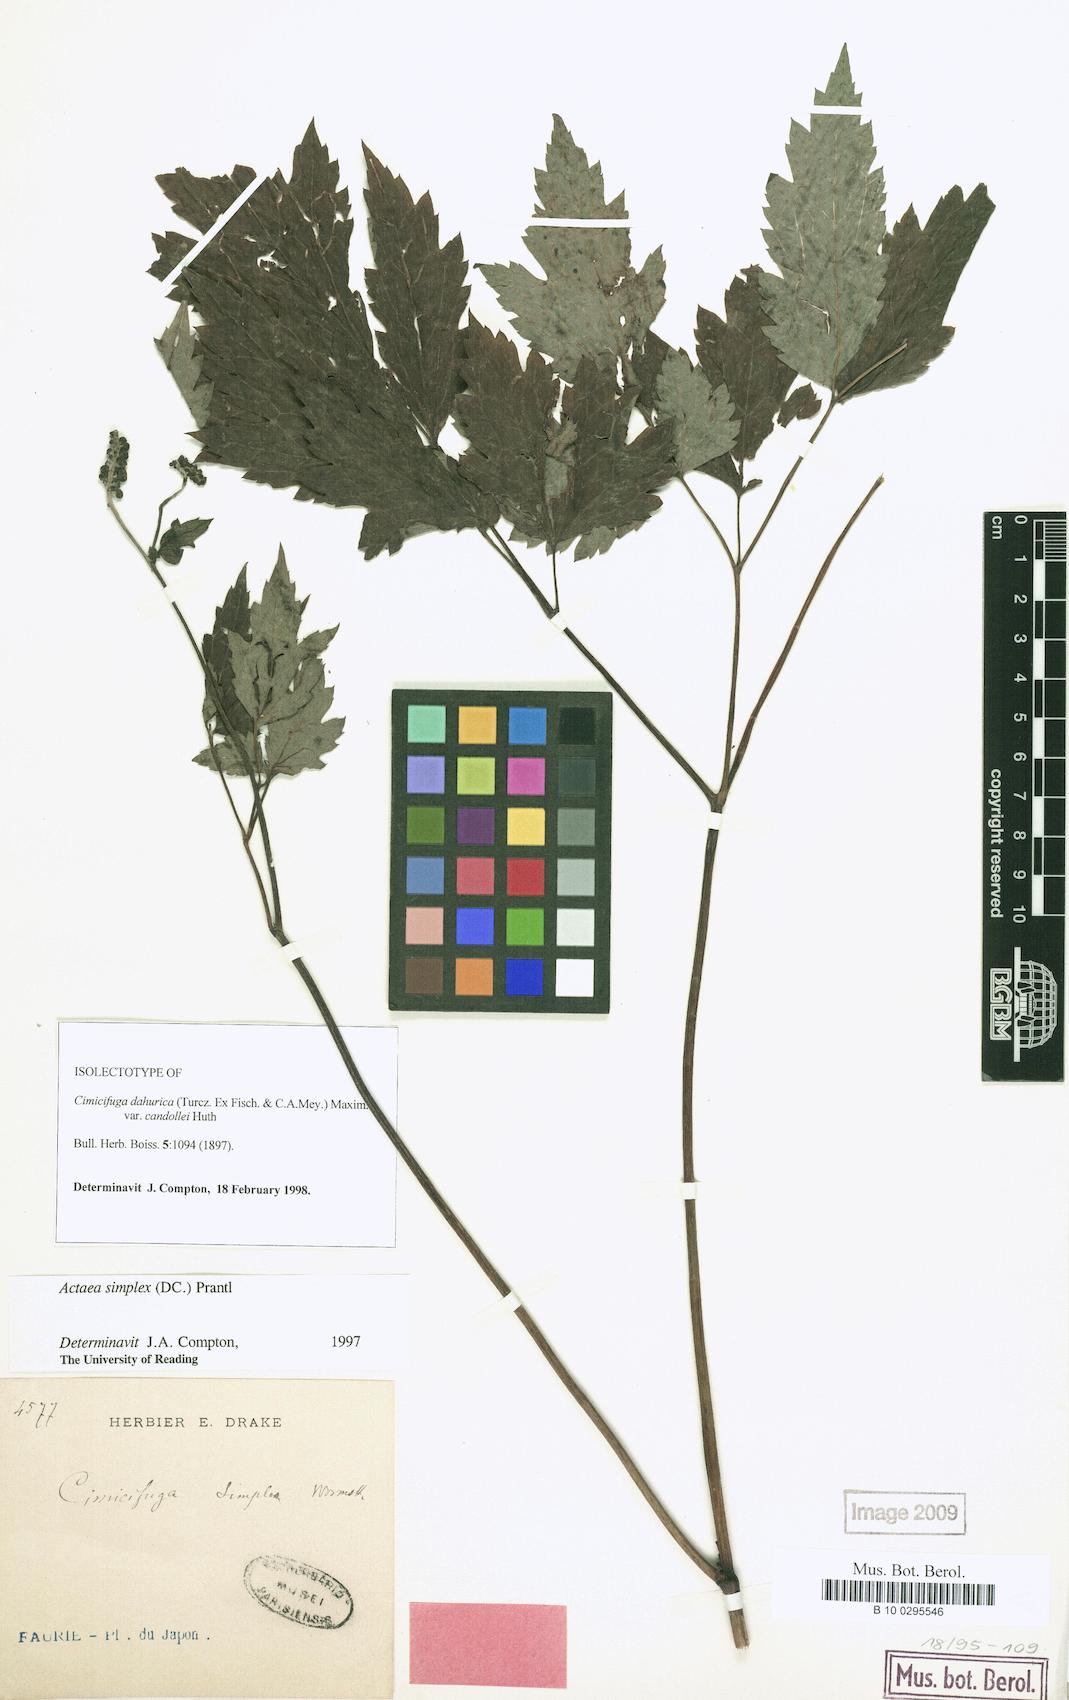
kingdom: Plantae
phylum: Tracheophyta
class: Magnoliopsida
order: Ranunculales
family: Ranunculaceae
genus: Actaea
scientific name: Actaea simplex
